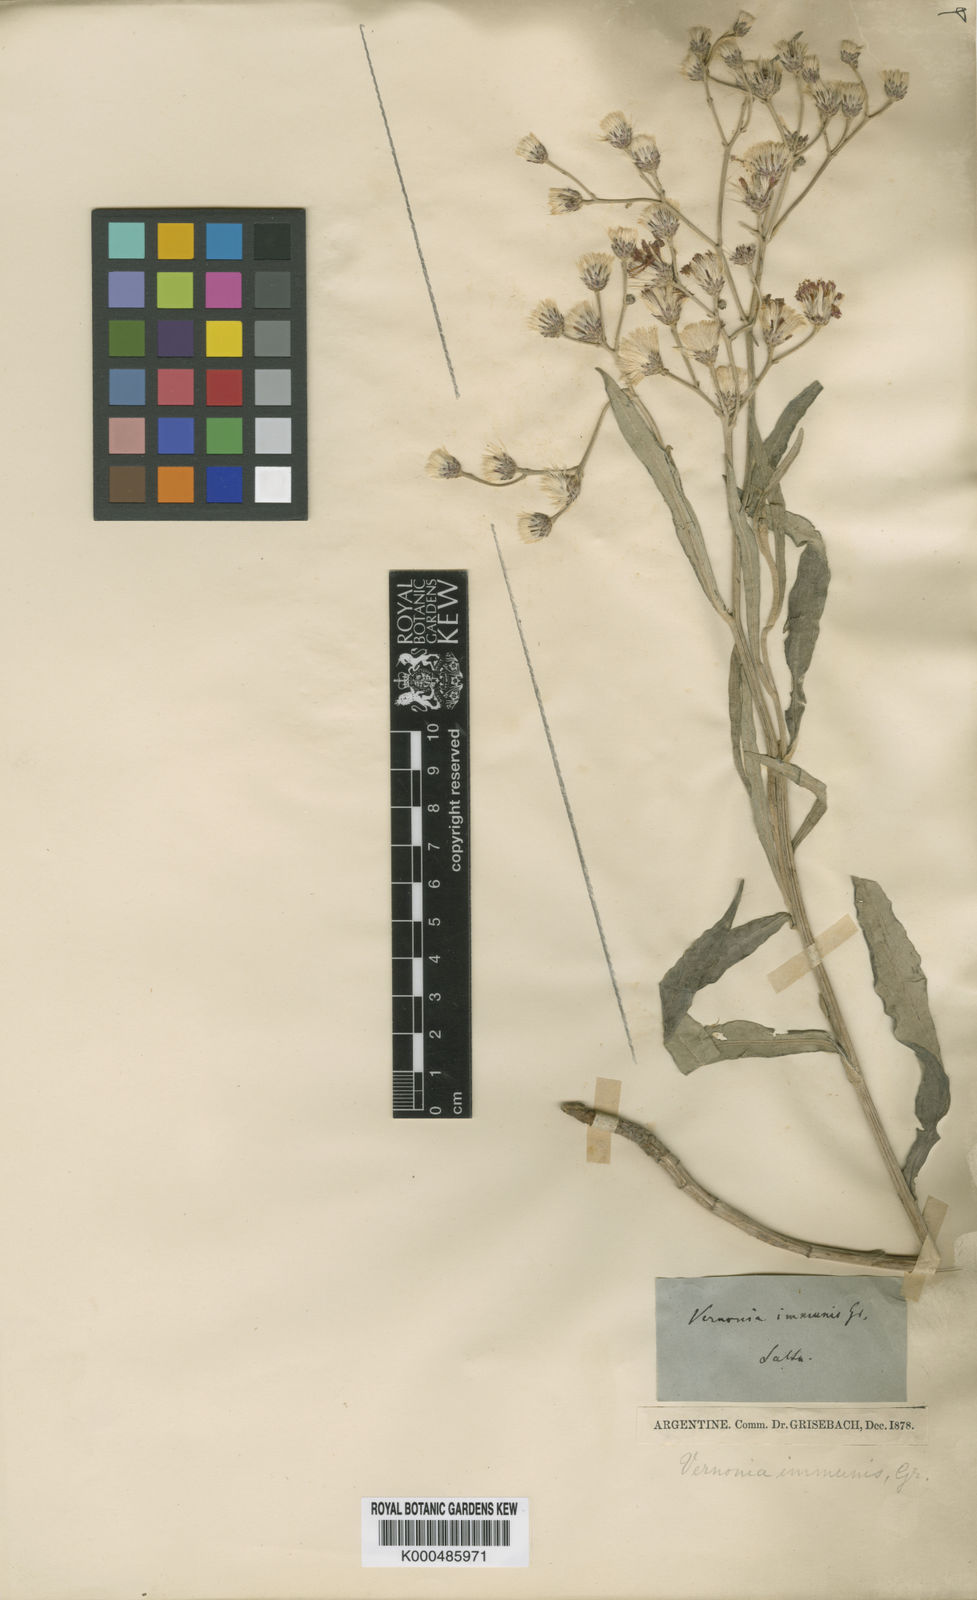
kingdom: Plantae
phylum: Tracheophyta
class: Magnoliopsida
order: Asterales
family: Asteraceae
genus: Vernonia
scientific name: Vernonia
